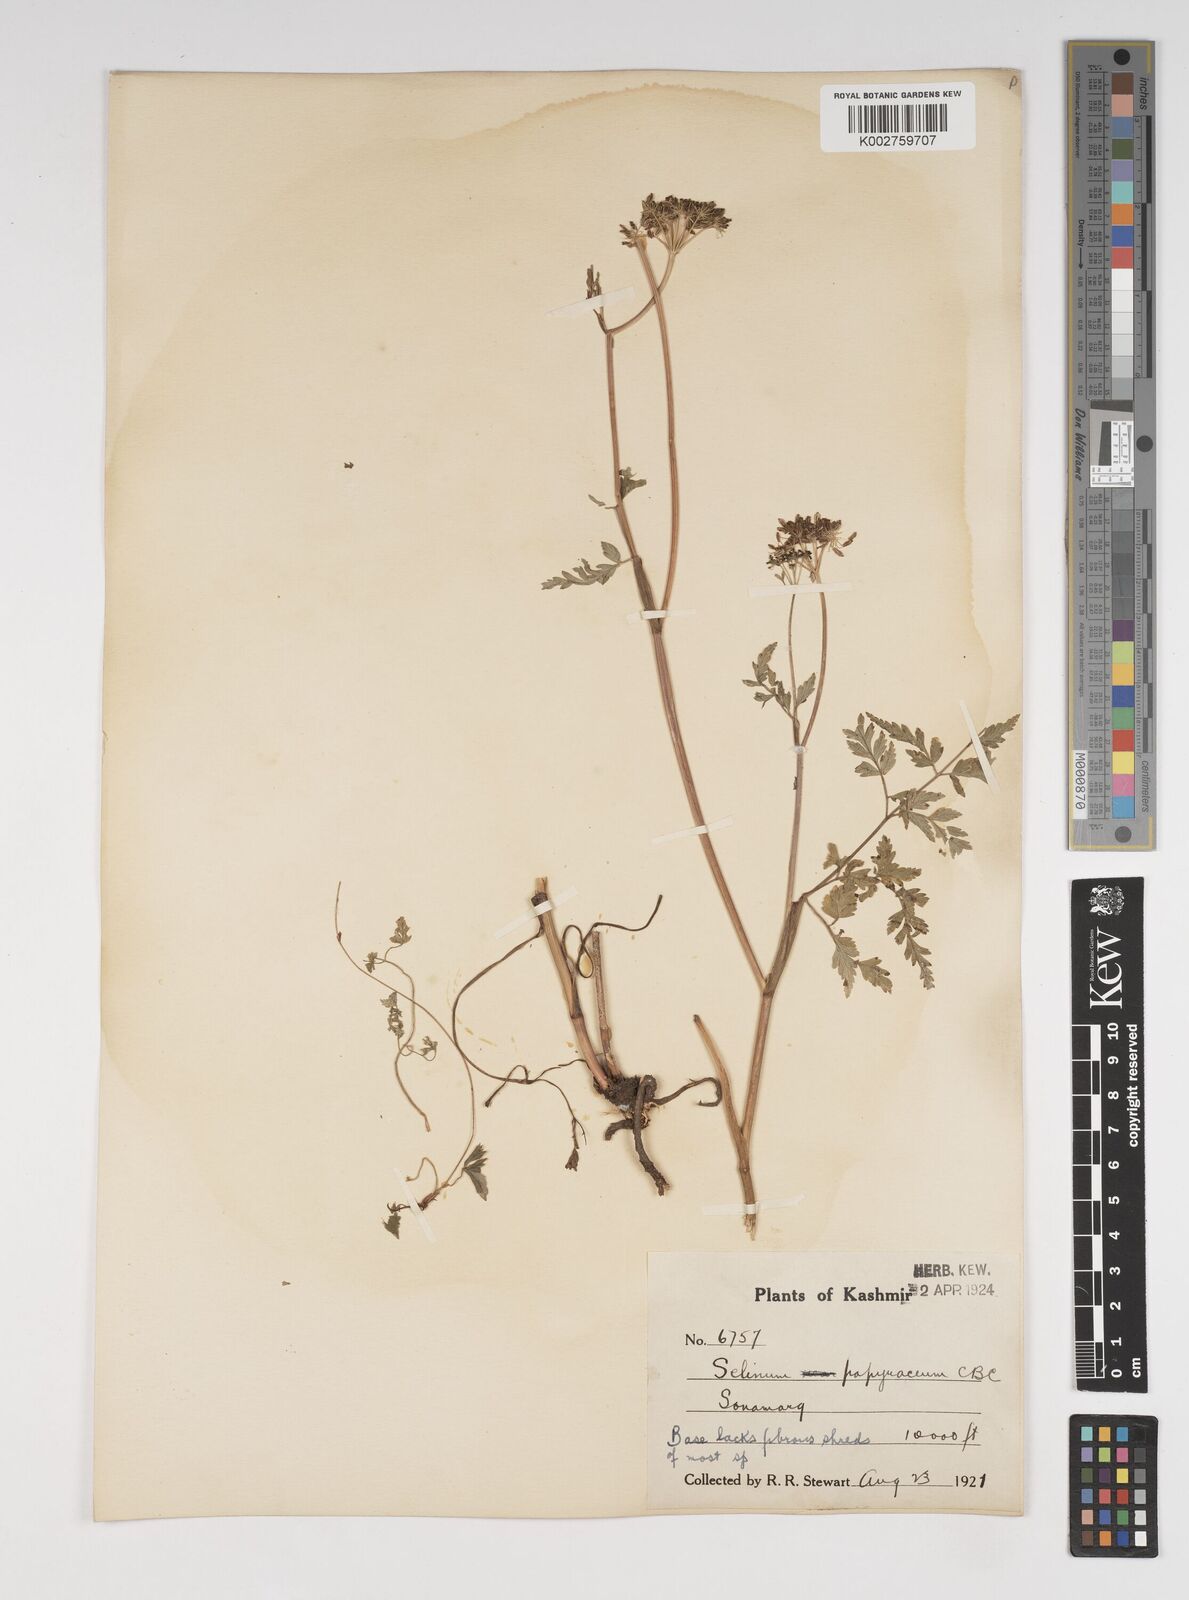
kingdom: Plantae
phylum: Tracheophyta
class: Magnoliopsida
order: Apiales
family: Apiaceae
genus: Conioselinum
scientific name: Conioselinum tataricum
